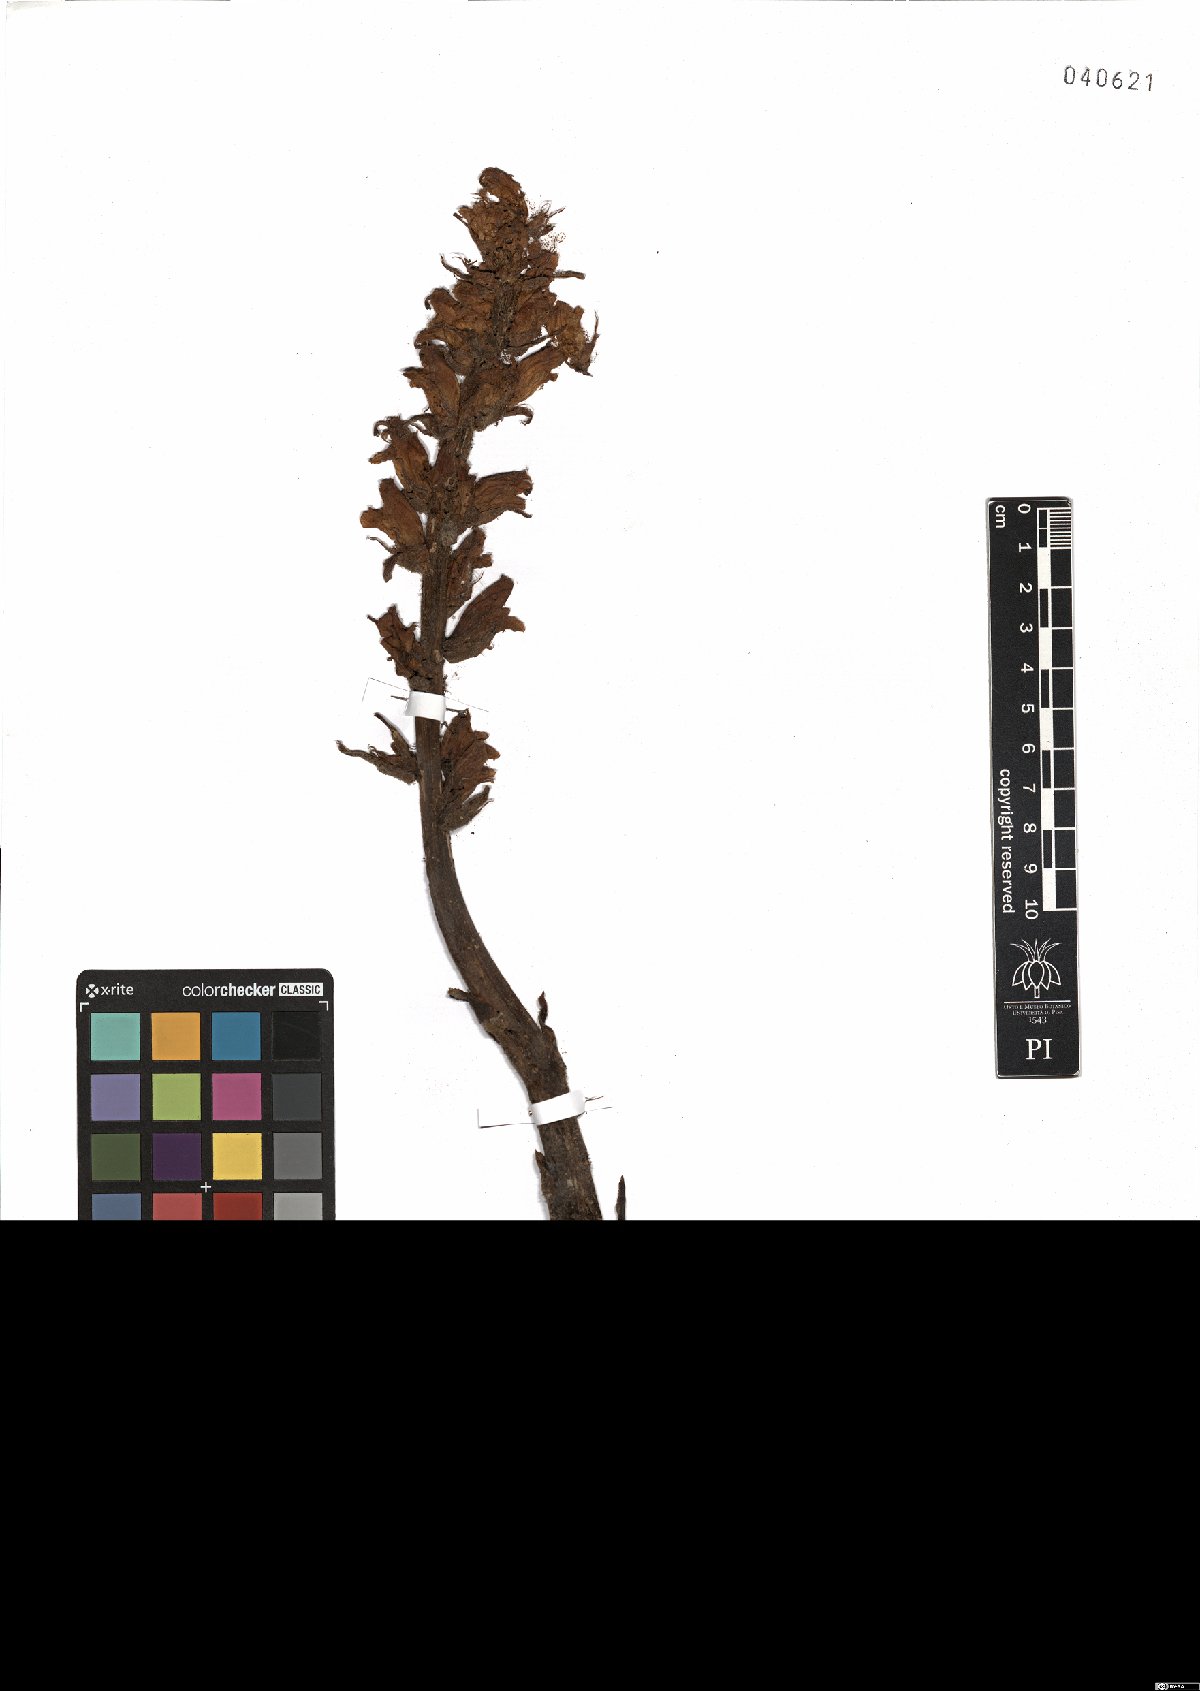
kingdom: Plantae
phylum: Tracheophyta
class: Magnoliopsida
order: Lamiales
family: Orobanchaceae
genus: Orobanche
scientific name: Orobanche rapum-genistae
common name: Greater broomrape
